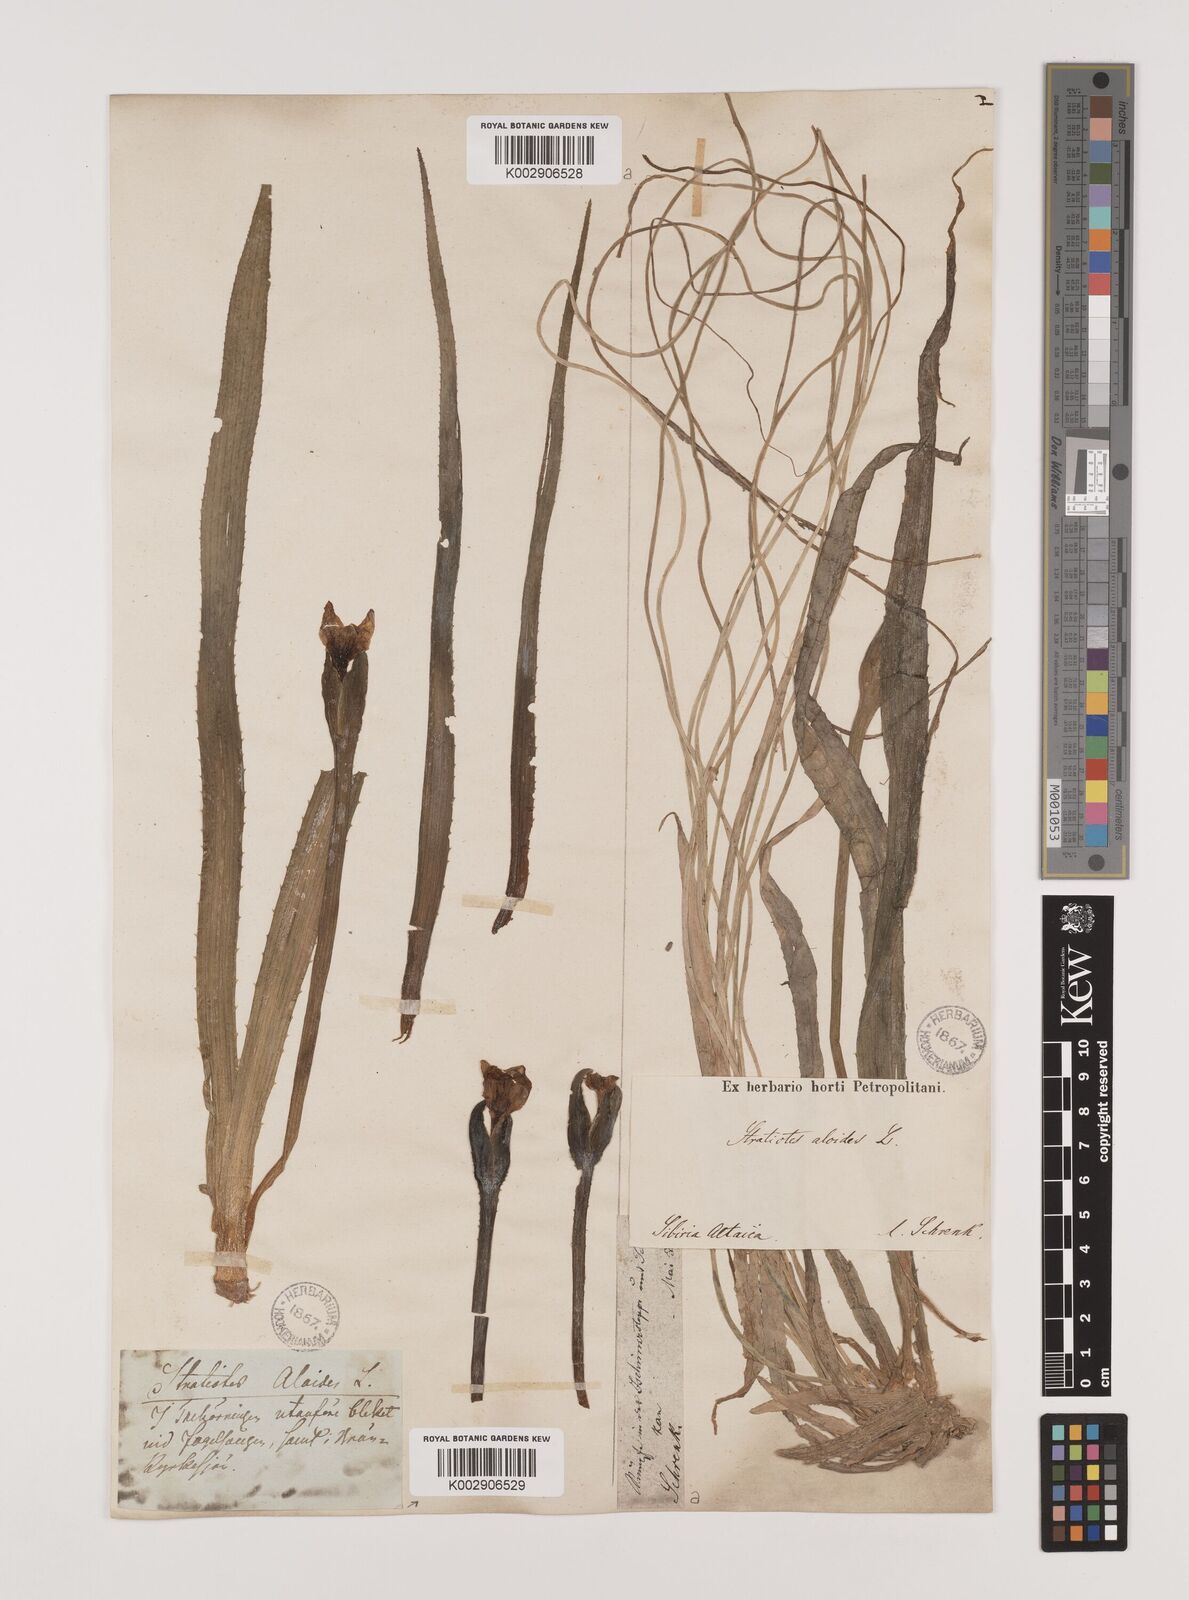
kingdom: Plantae
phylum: Tracheophyta
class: Liliopsida
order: Alismatales
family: Hydrocharitaceae
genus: Stratiotes
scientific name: Stratiotes aloides
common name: Water-soldier
